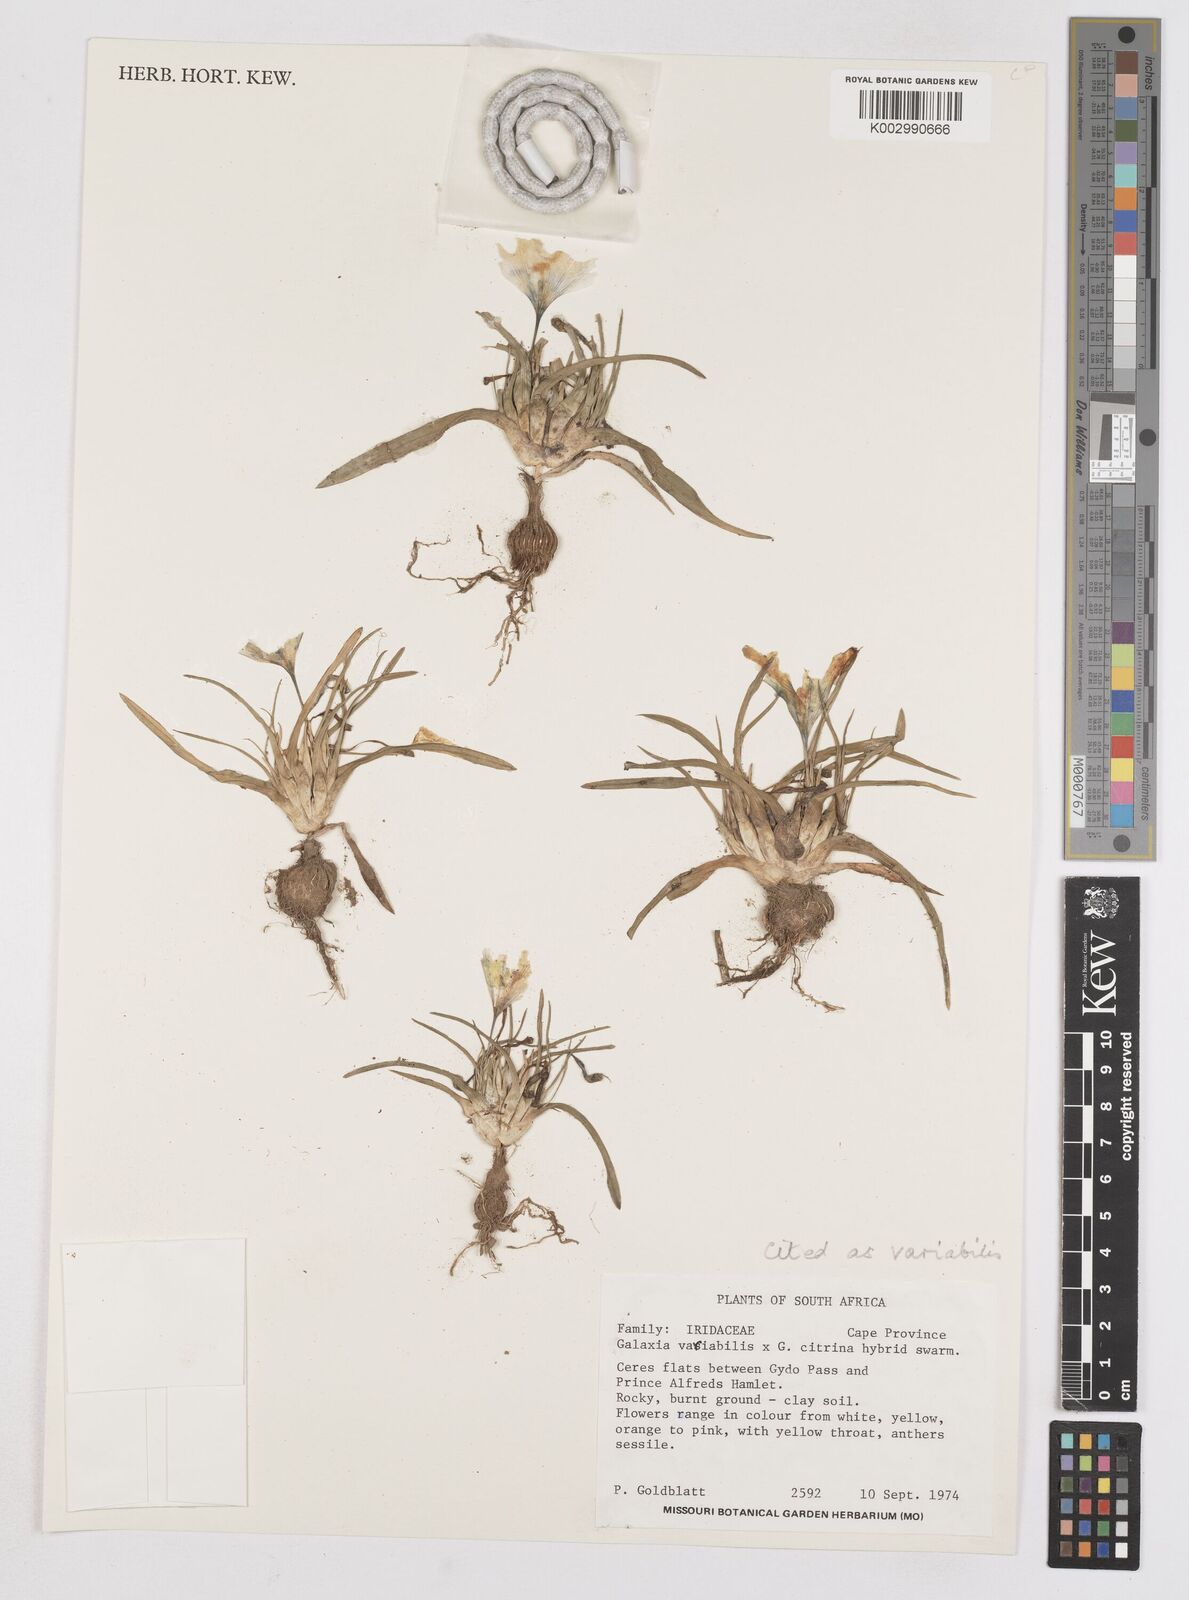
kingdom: Plantae
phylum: Tracheophyta
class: Liliopsida
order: Asparagales
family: Iridaceae
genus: Moraea
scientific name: Moraea variabilis
